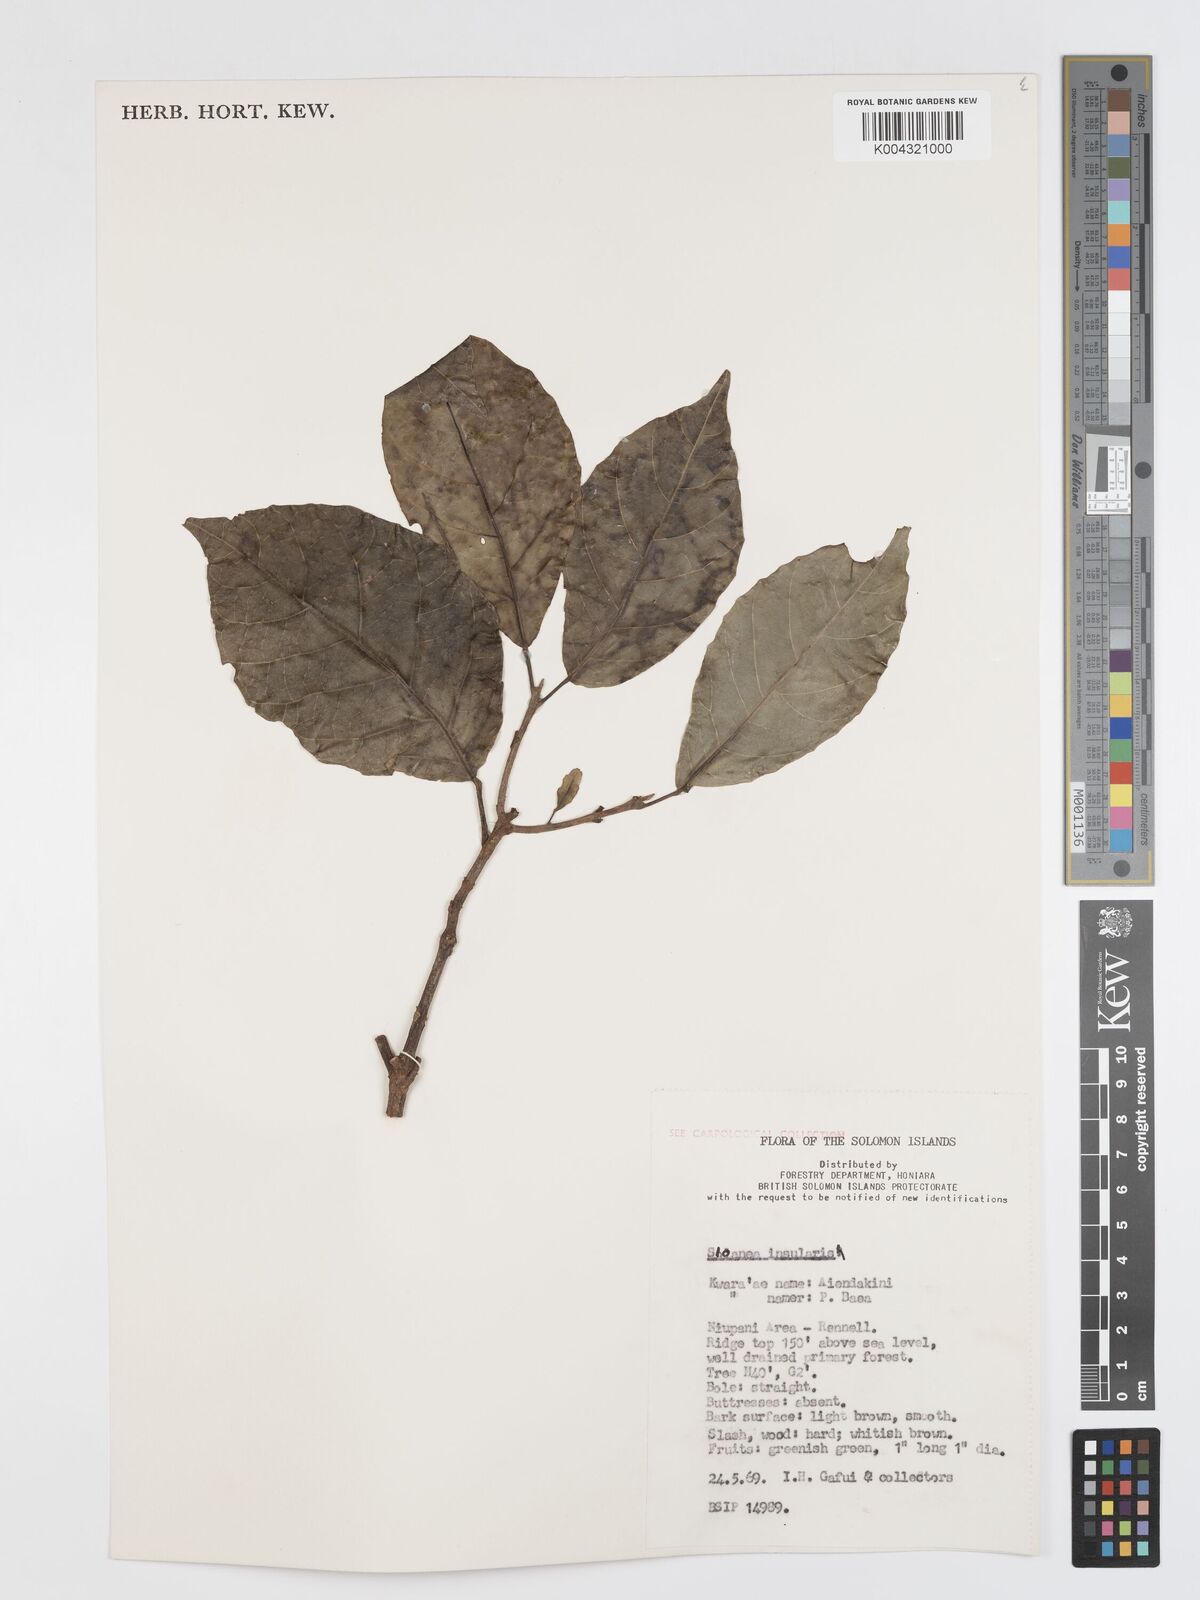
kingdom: Plantae
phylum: Tracheophyta
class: Magnoliopsida
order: Oxalidales
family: Elaeocarpaceae
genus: Sloanea
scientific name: Sloanea insularis
